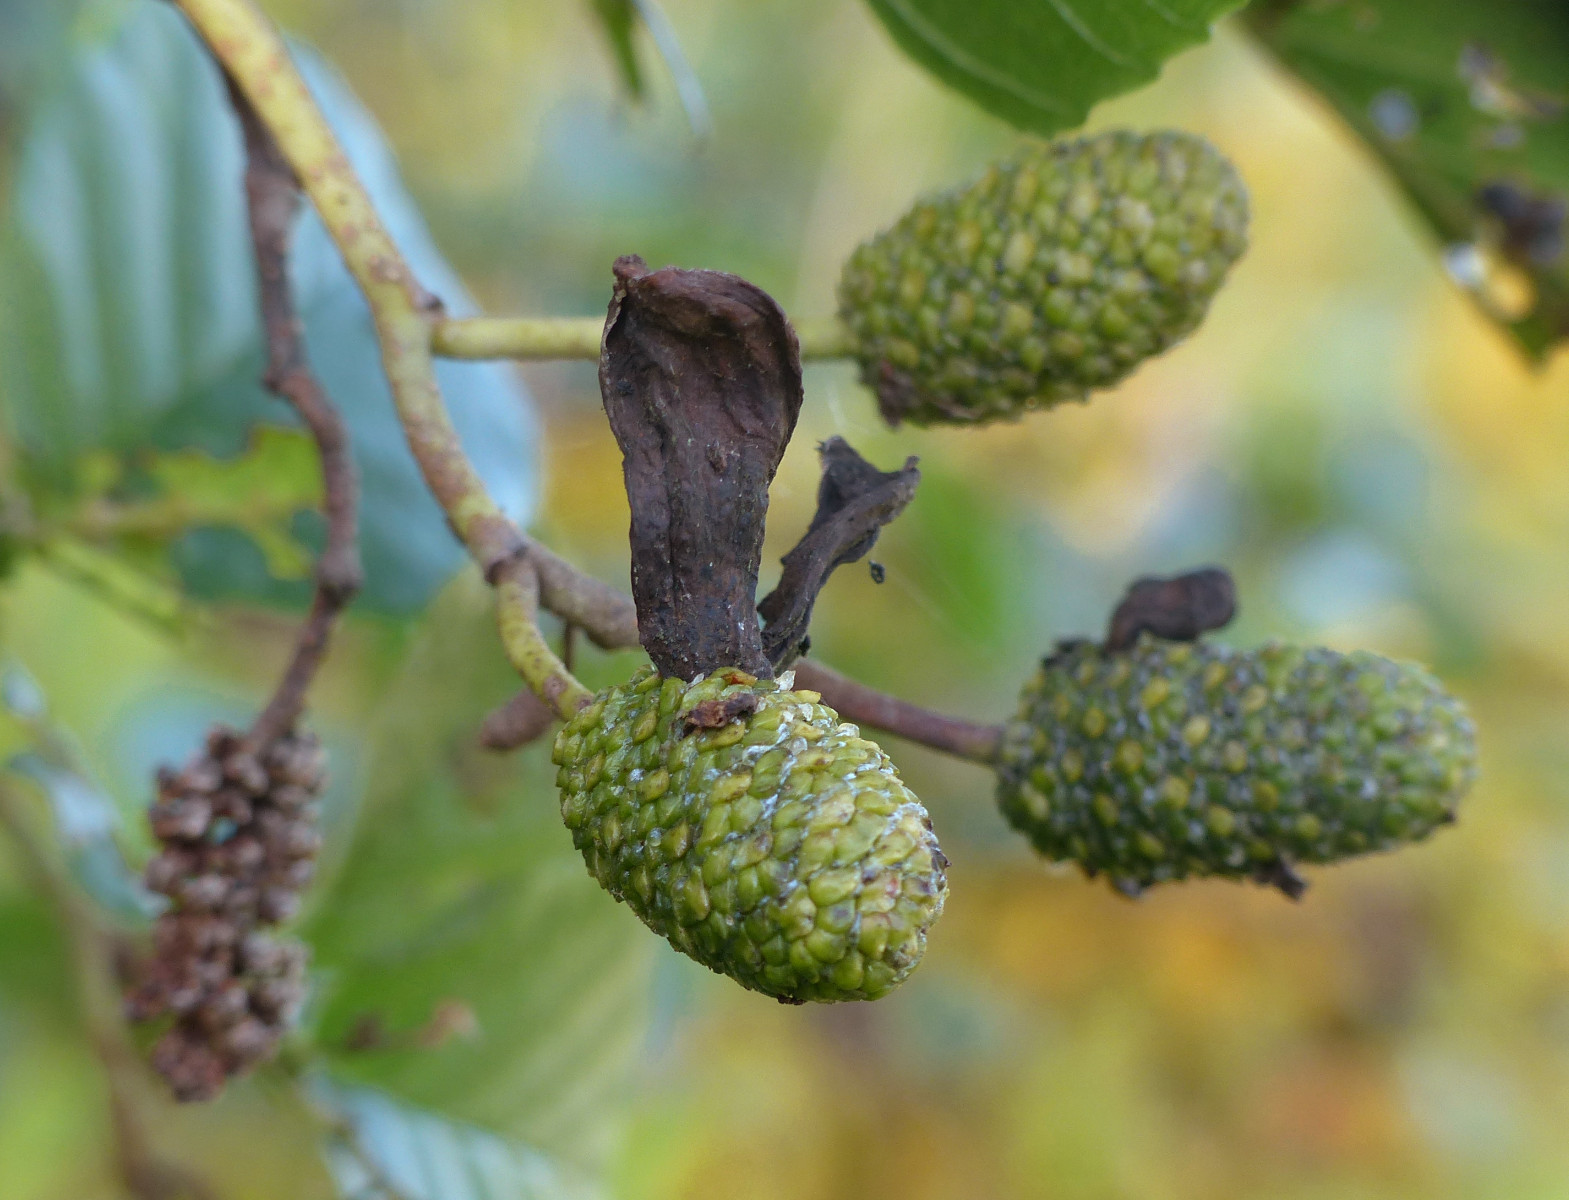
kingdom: Fungi
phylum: Ascomycota
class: Taphrinomycetes
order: Taphrinales
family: Taphrinaceae
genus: Taphrina
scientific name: Taphrina alni
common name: Alder tongue
